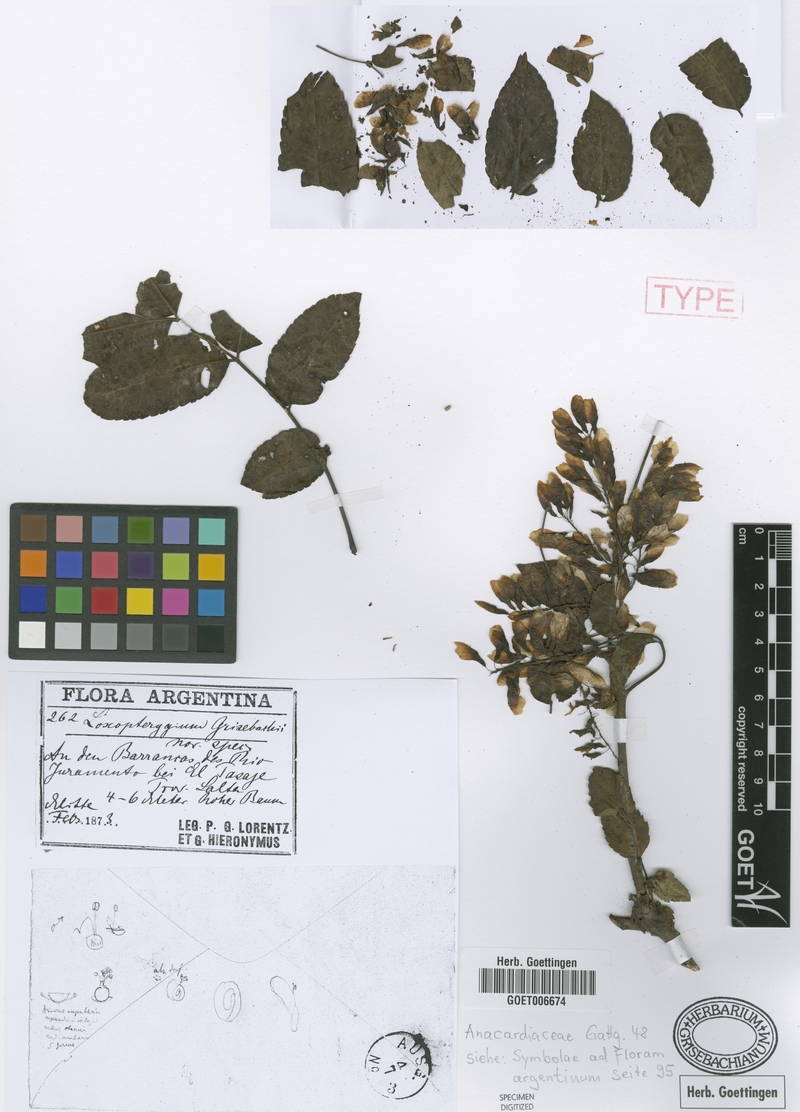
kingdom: Plantae
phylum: Tracheophyta
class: Magnoliopsida
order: Sapindales
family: Anacardiaceae
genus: Loxopterygium
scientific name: Loxopterygium
